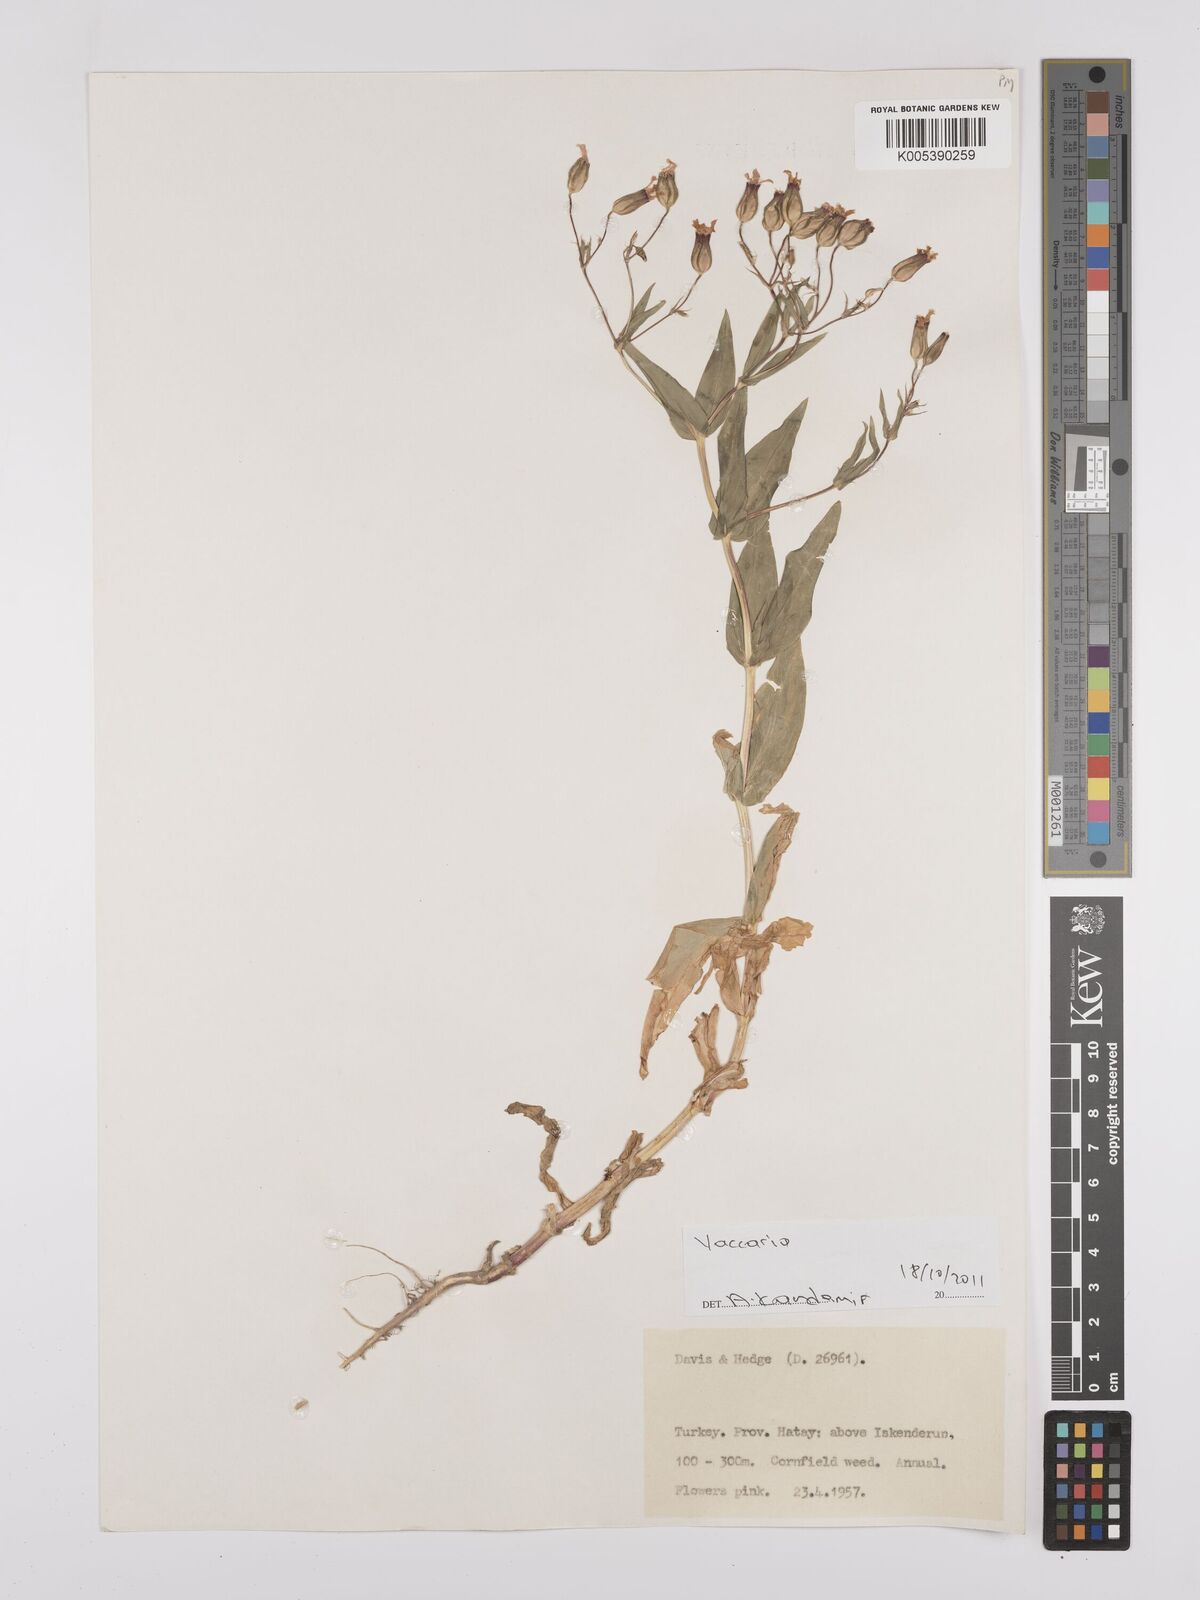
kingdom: Plantae
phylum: Tracheophyta
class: Magnoliopsida
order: Caryophyllales
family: Caryophyllaceae
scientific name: Caryophyllaceae
